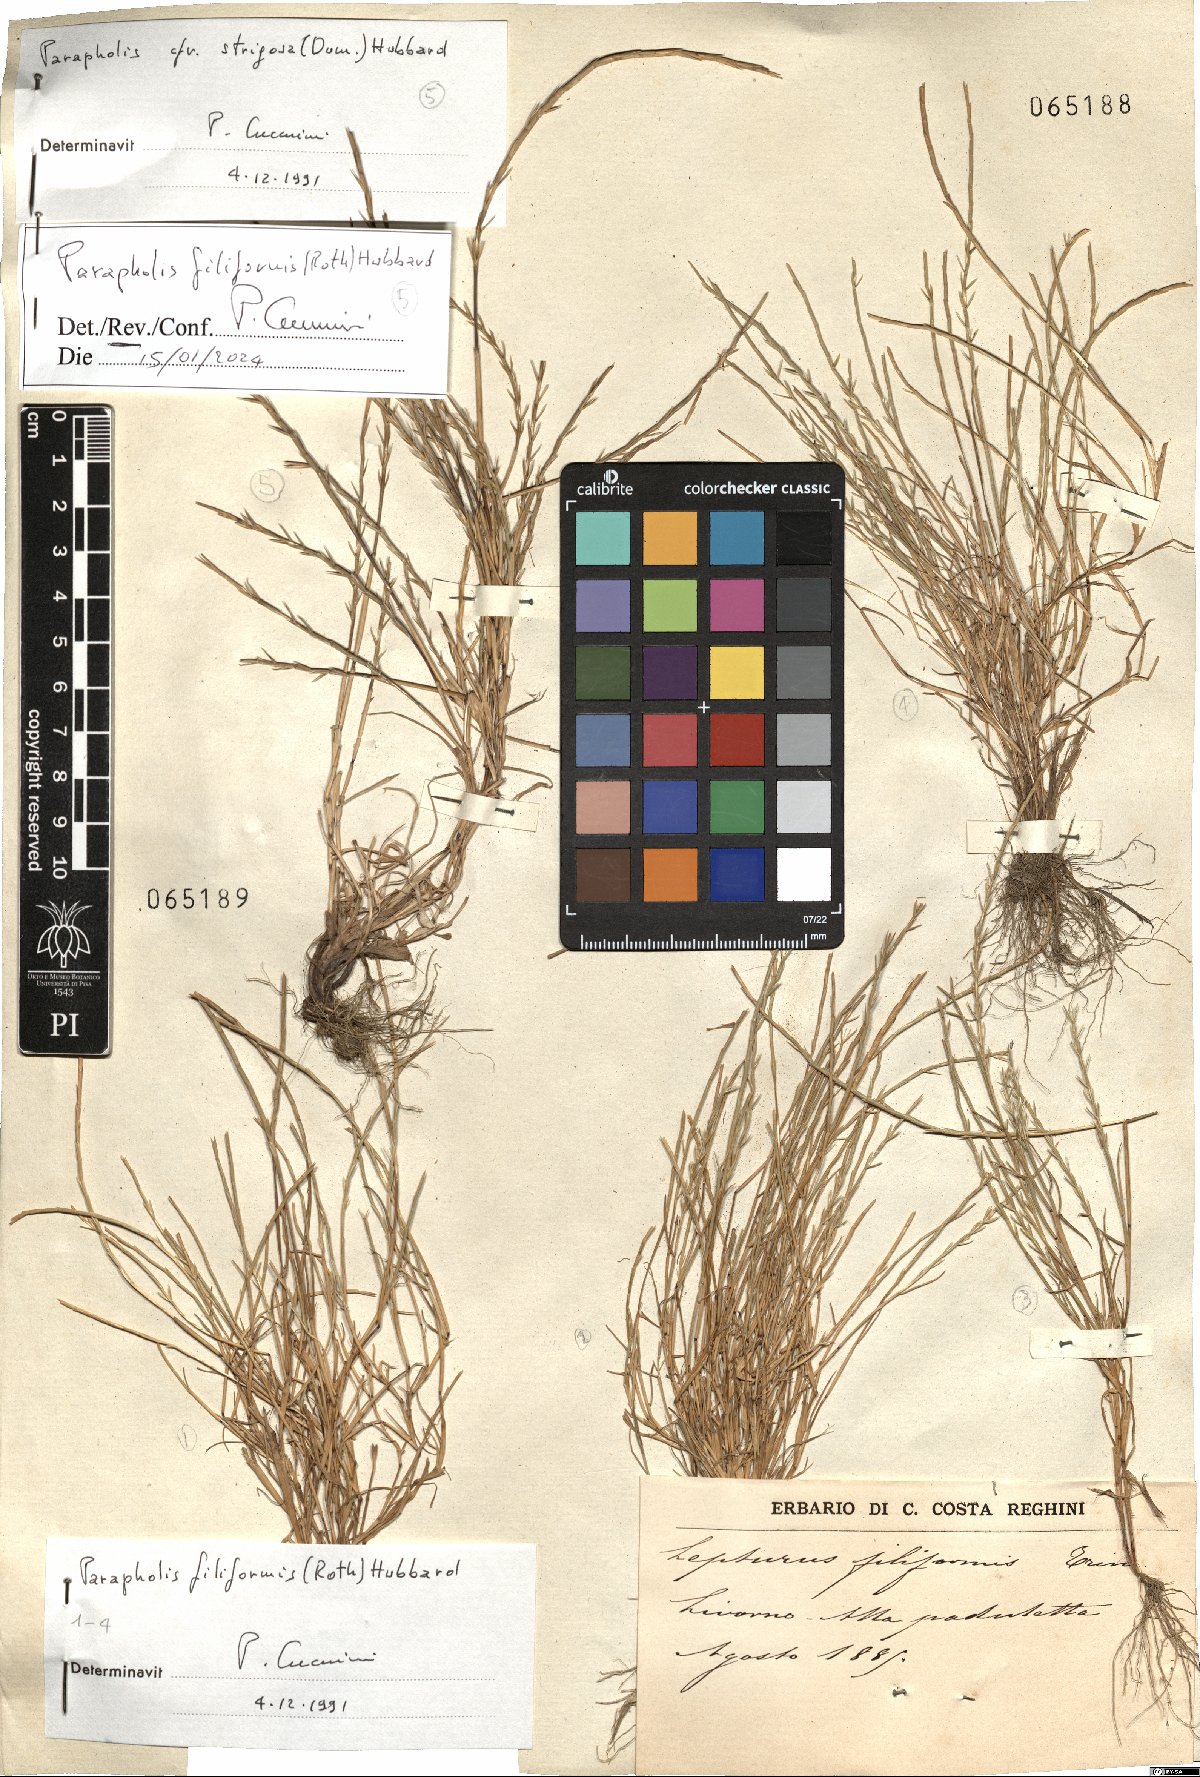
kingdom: Plantae
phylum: Tracheophyta
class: Liliopsida
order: Poales
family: Poaceae
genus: Parapholis
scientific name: Parapholis filiformis
